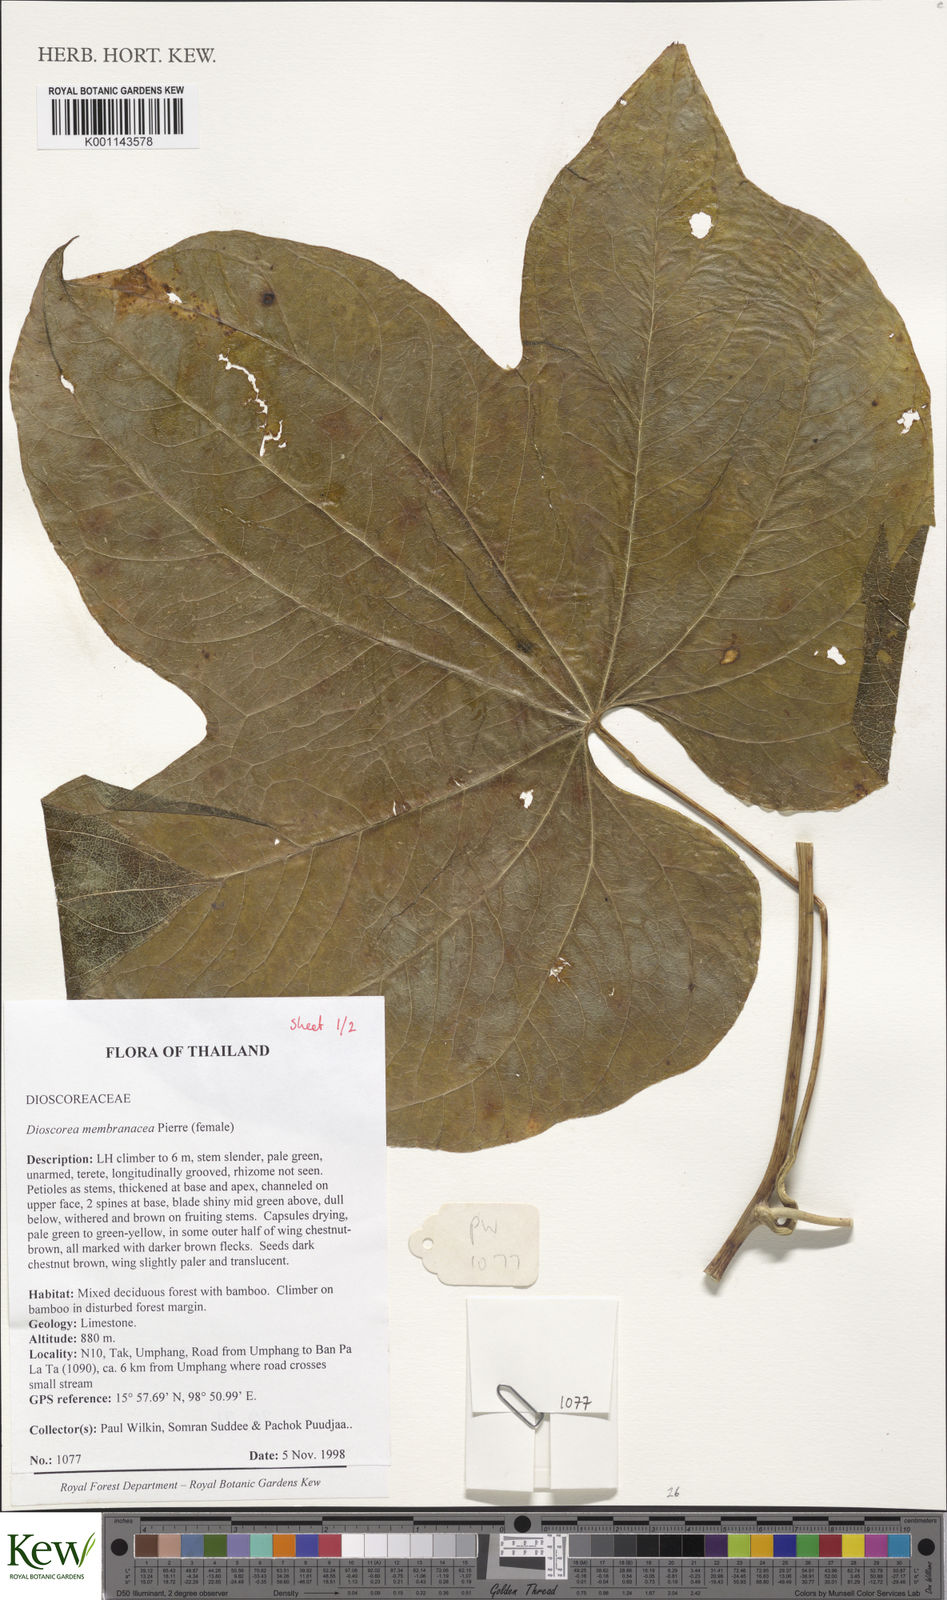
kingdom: Plantae
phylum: Tracheophyta
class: Liliopsida
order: Dioscoreales
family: Dioscoreaceae
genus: Dioscorea
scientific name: Dioscorea membranacea
